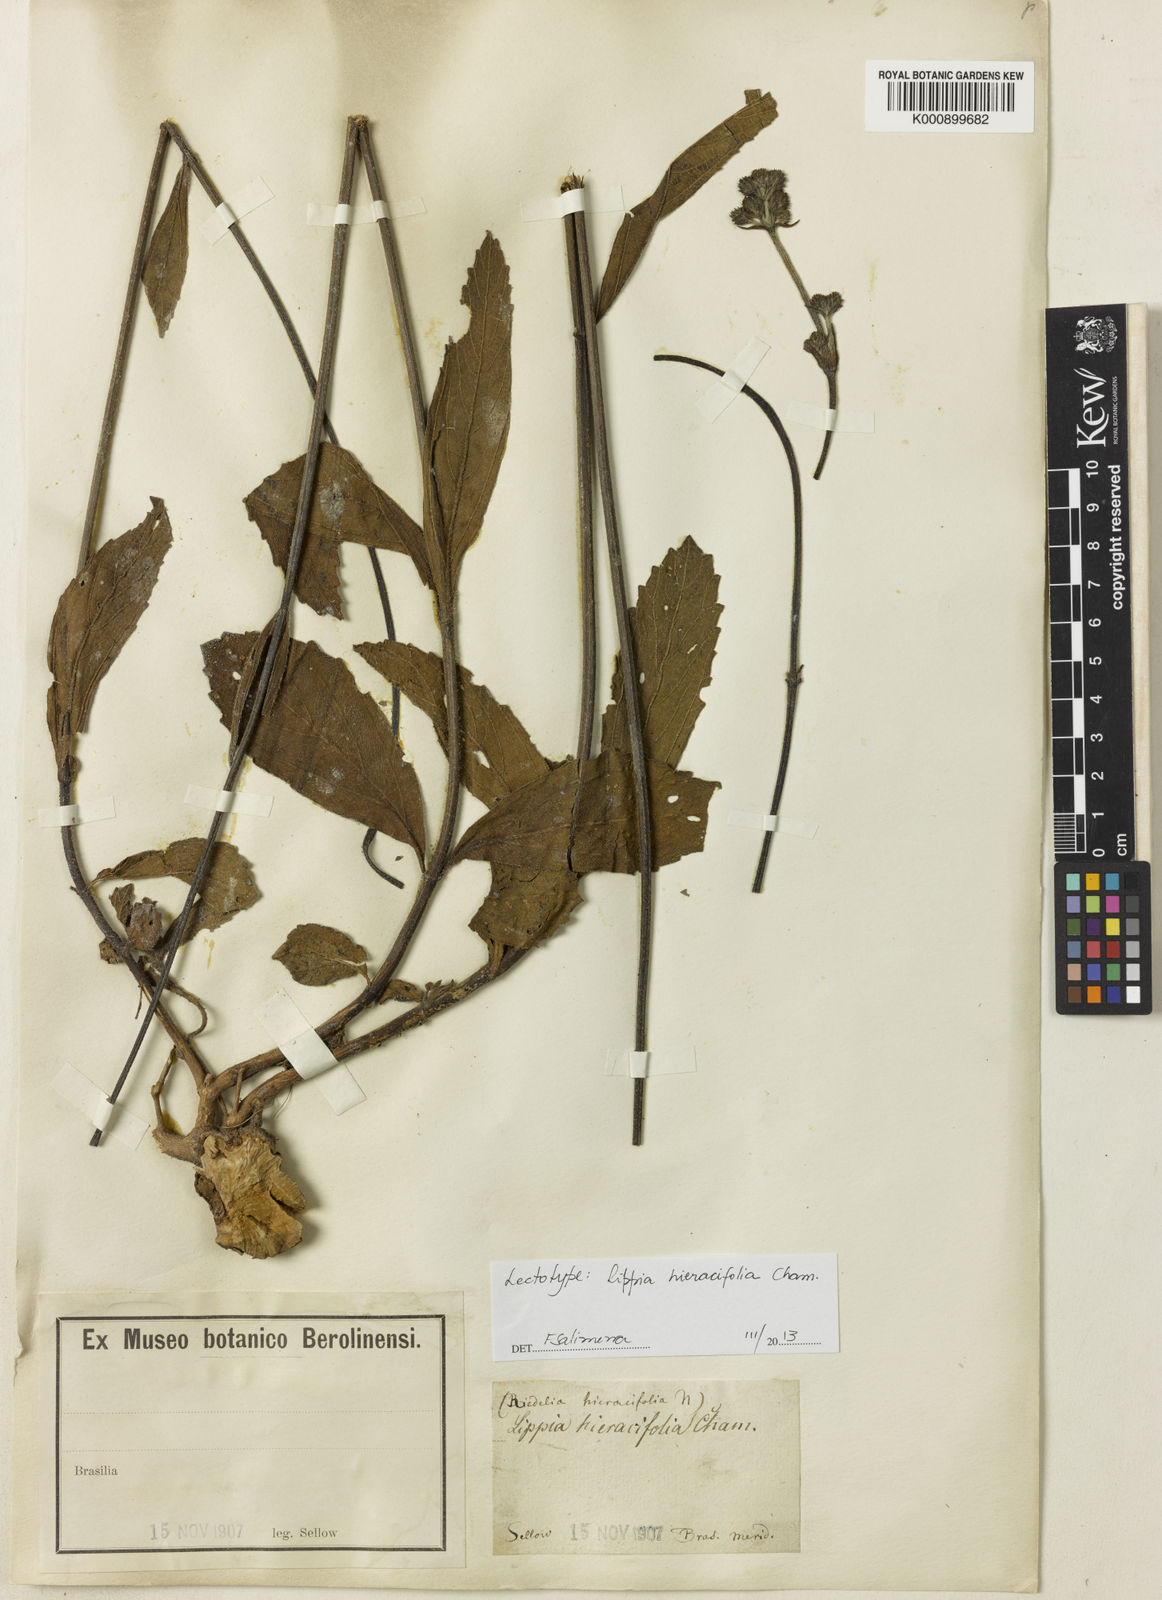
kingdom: Plantae
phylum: Tracheophyta
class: Magnoliopsida
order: Lamiales
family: Verbenaceae
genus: Lippia
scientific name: Lippia hieraciifolia
